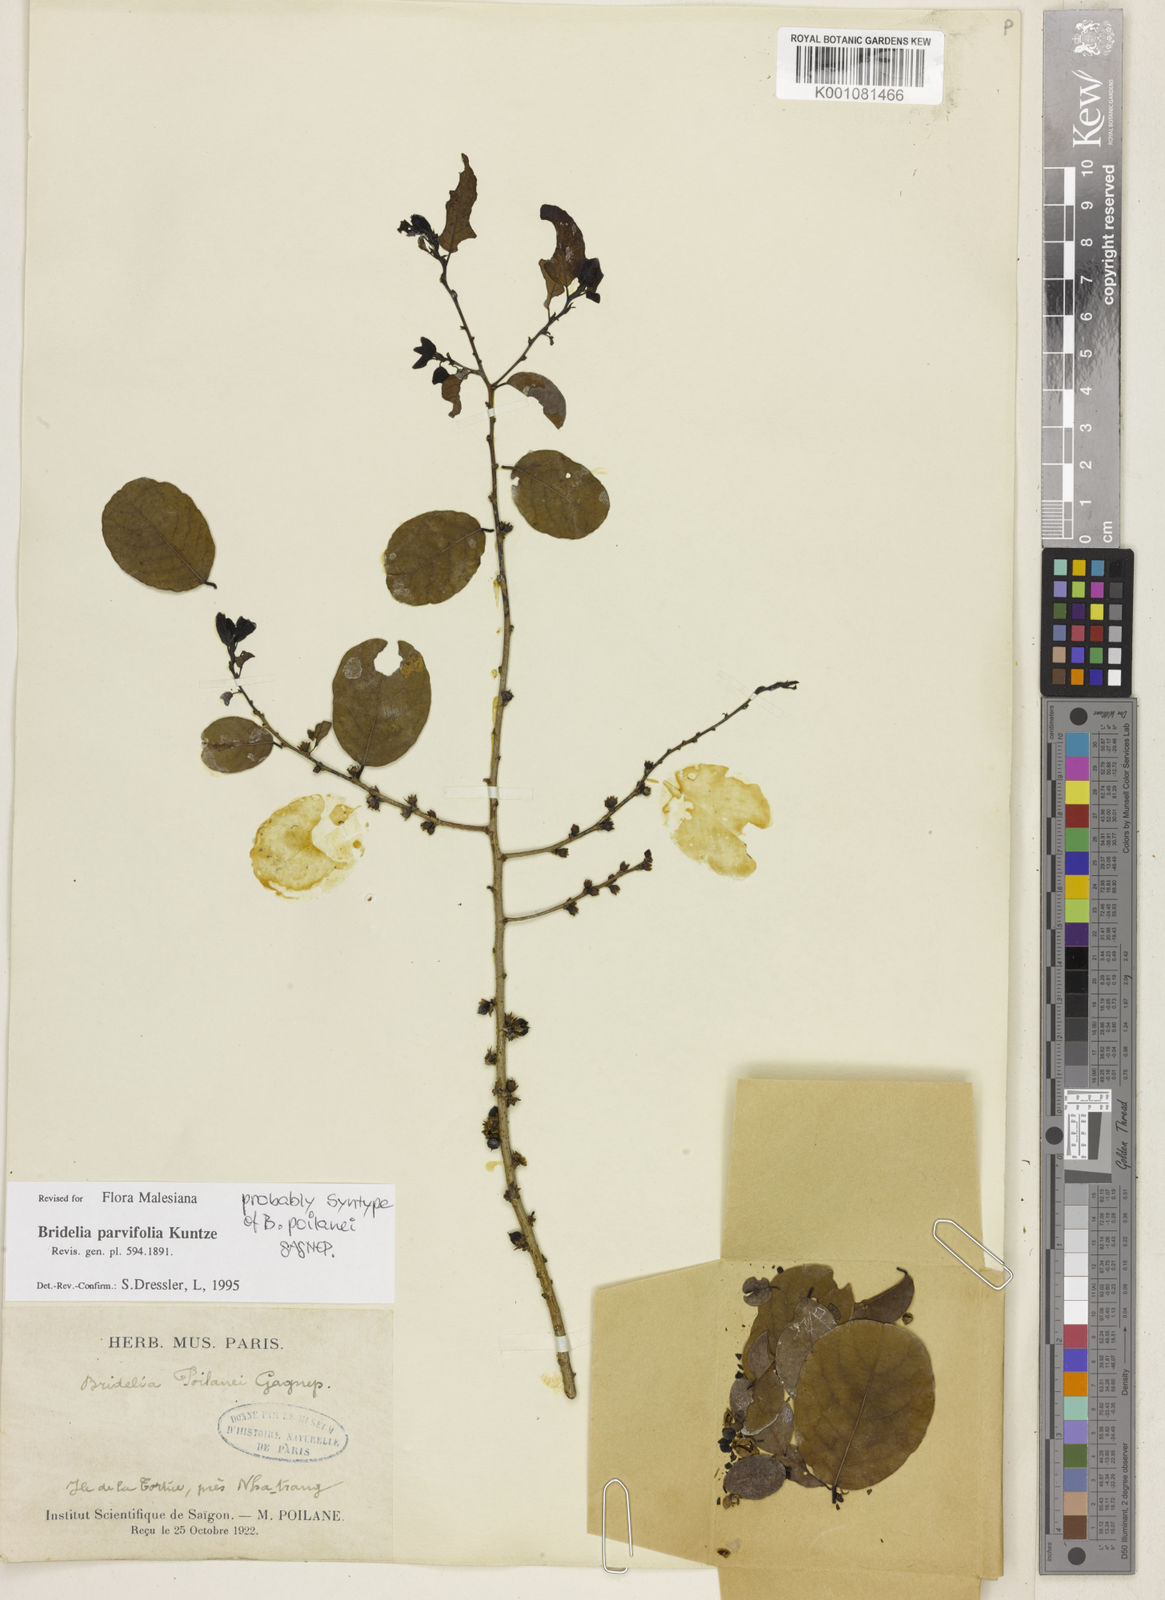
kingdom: Plantae
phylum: Tracheophyta
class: Magnoliopsida
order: Malpighiales
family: Phyllanthaceae
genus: Bridelia
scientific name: Bridelia parvifolia
